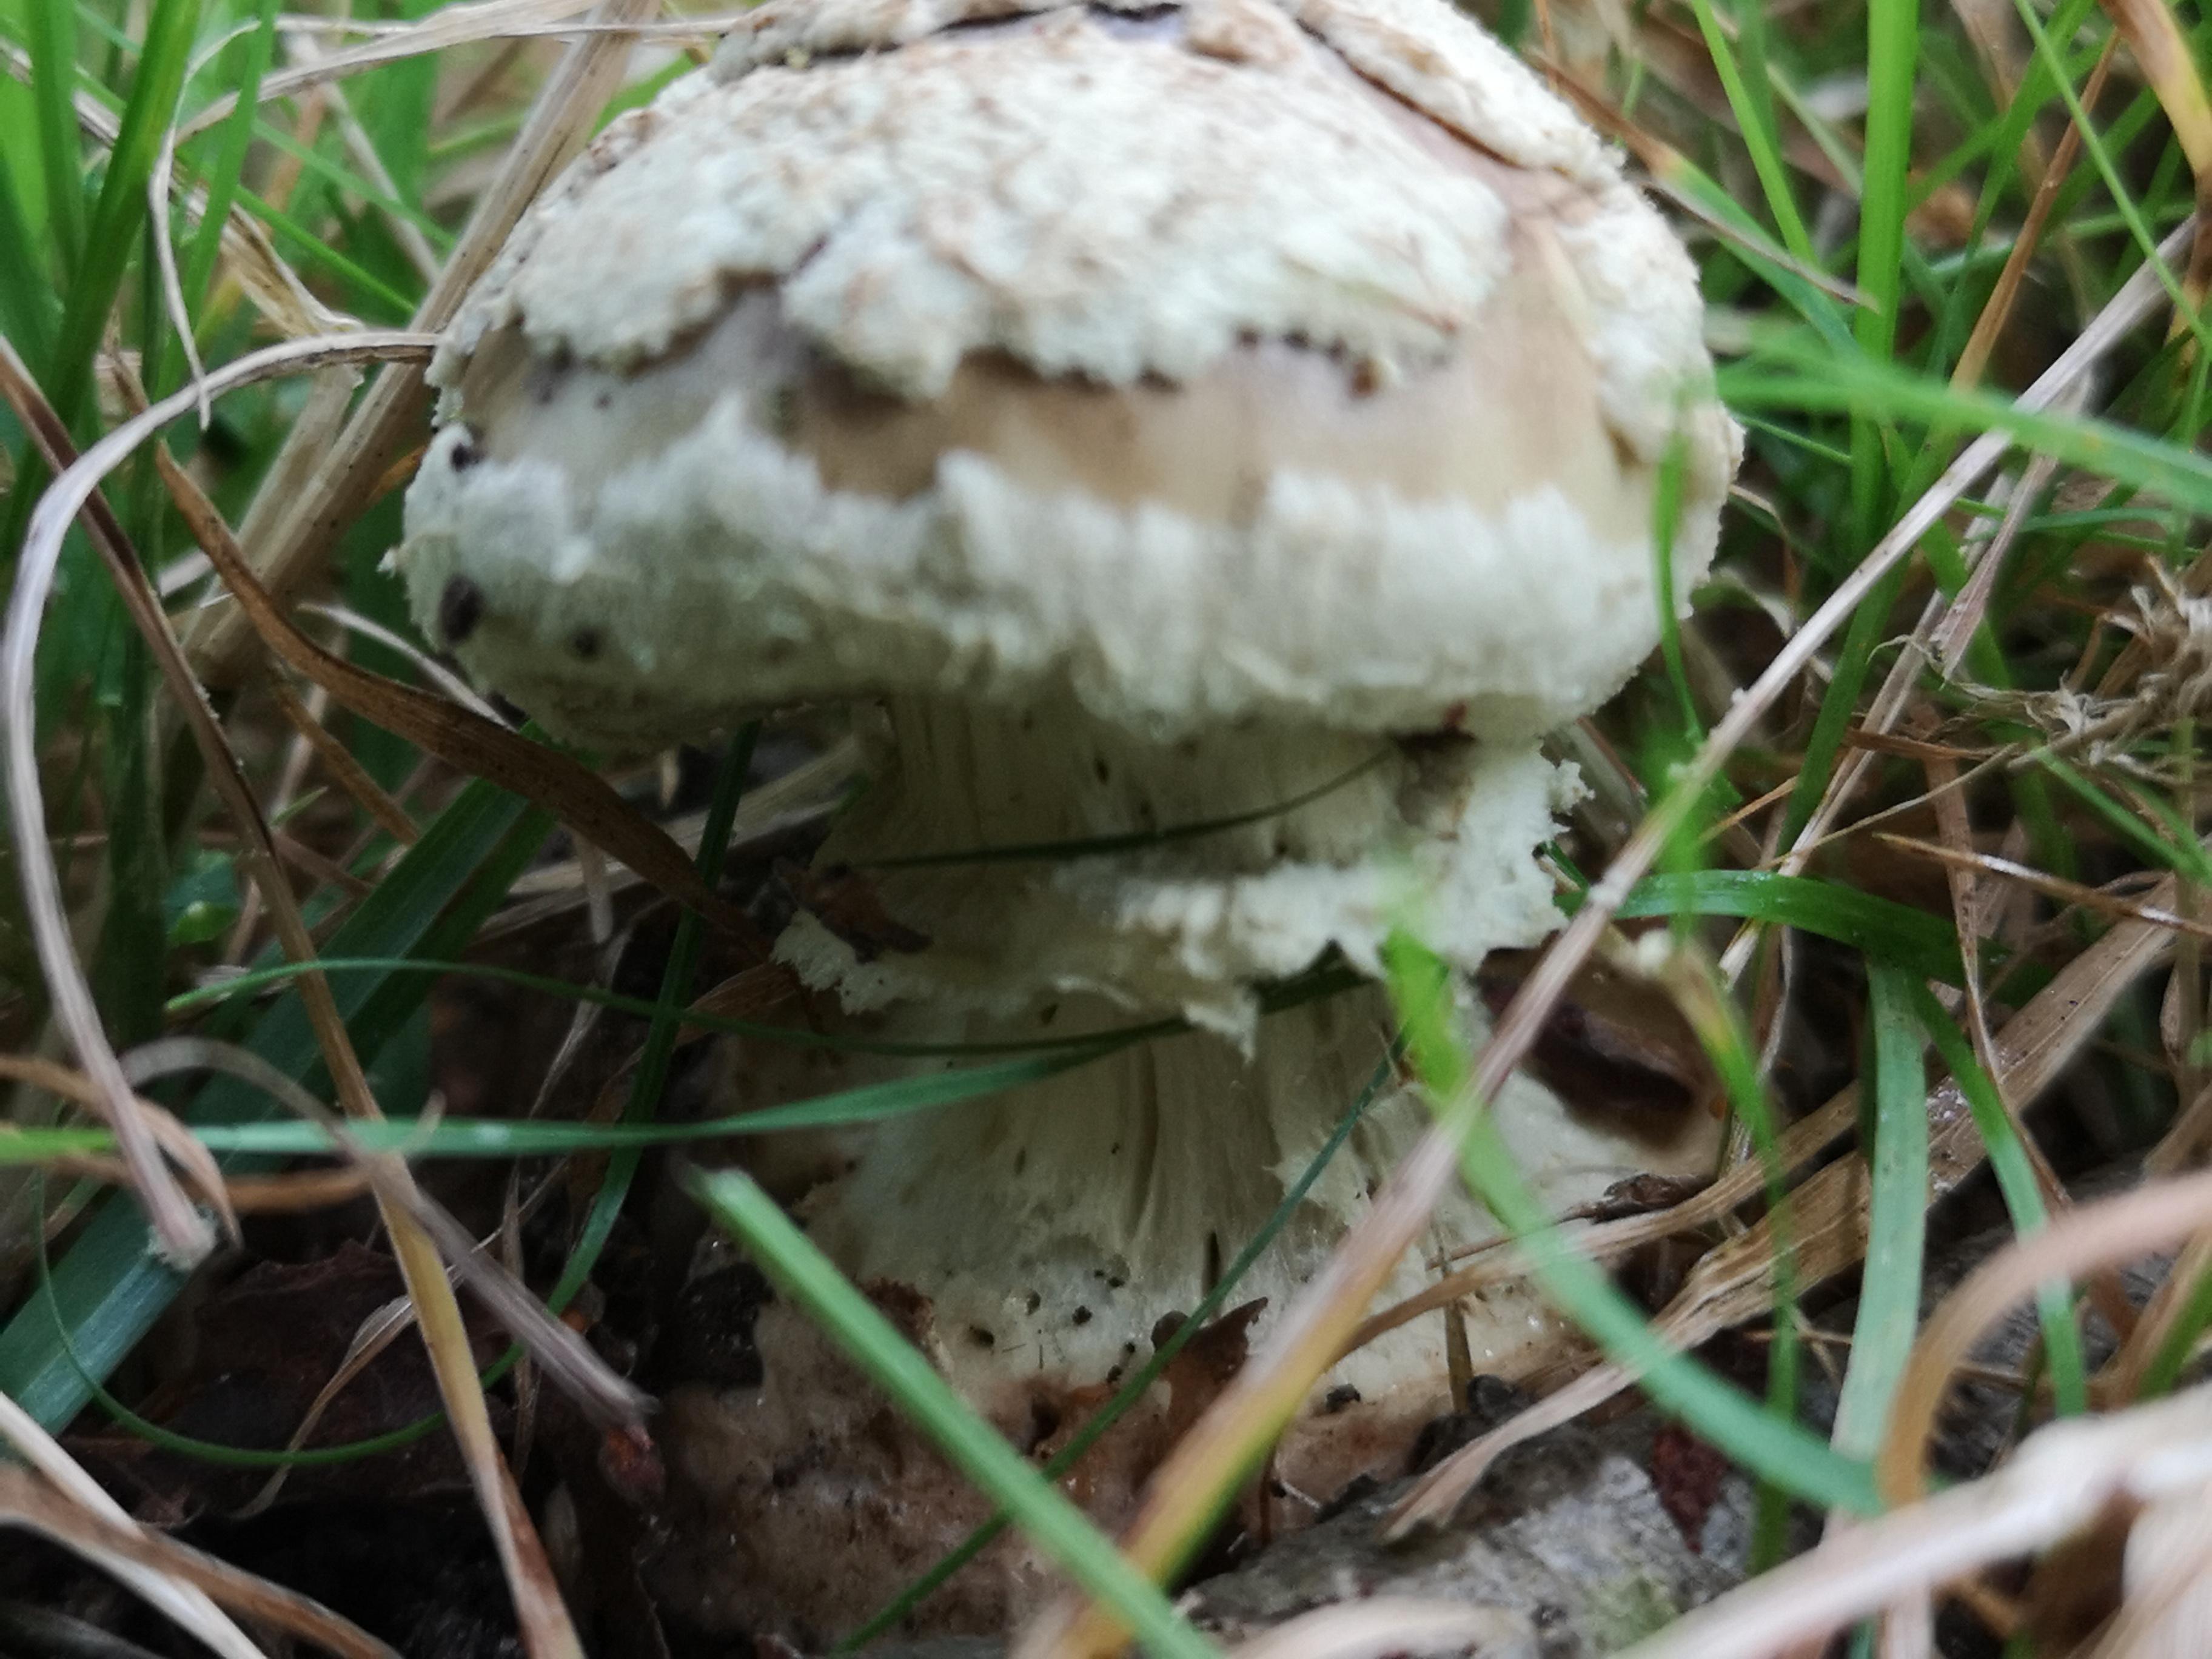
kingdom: Fungi
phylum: Basidiomycota
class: Agaricomycetes
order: Agaricales
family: Amanitaceae
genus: Amanita
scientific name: Amanita
